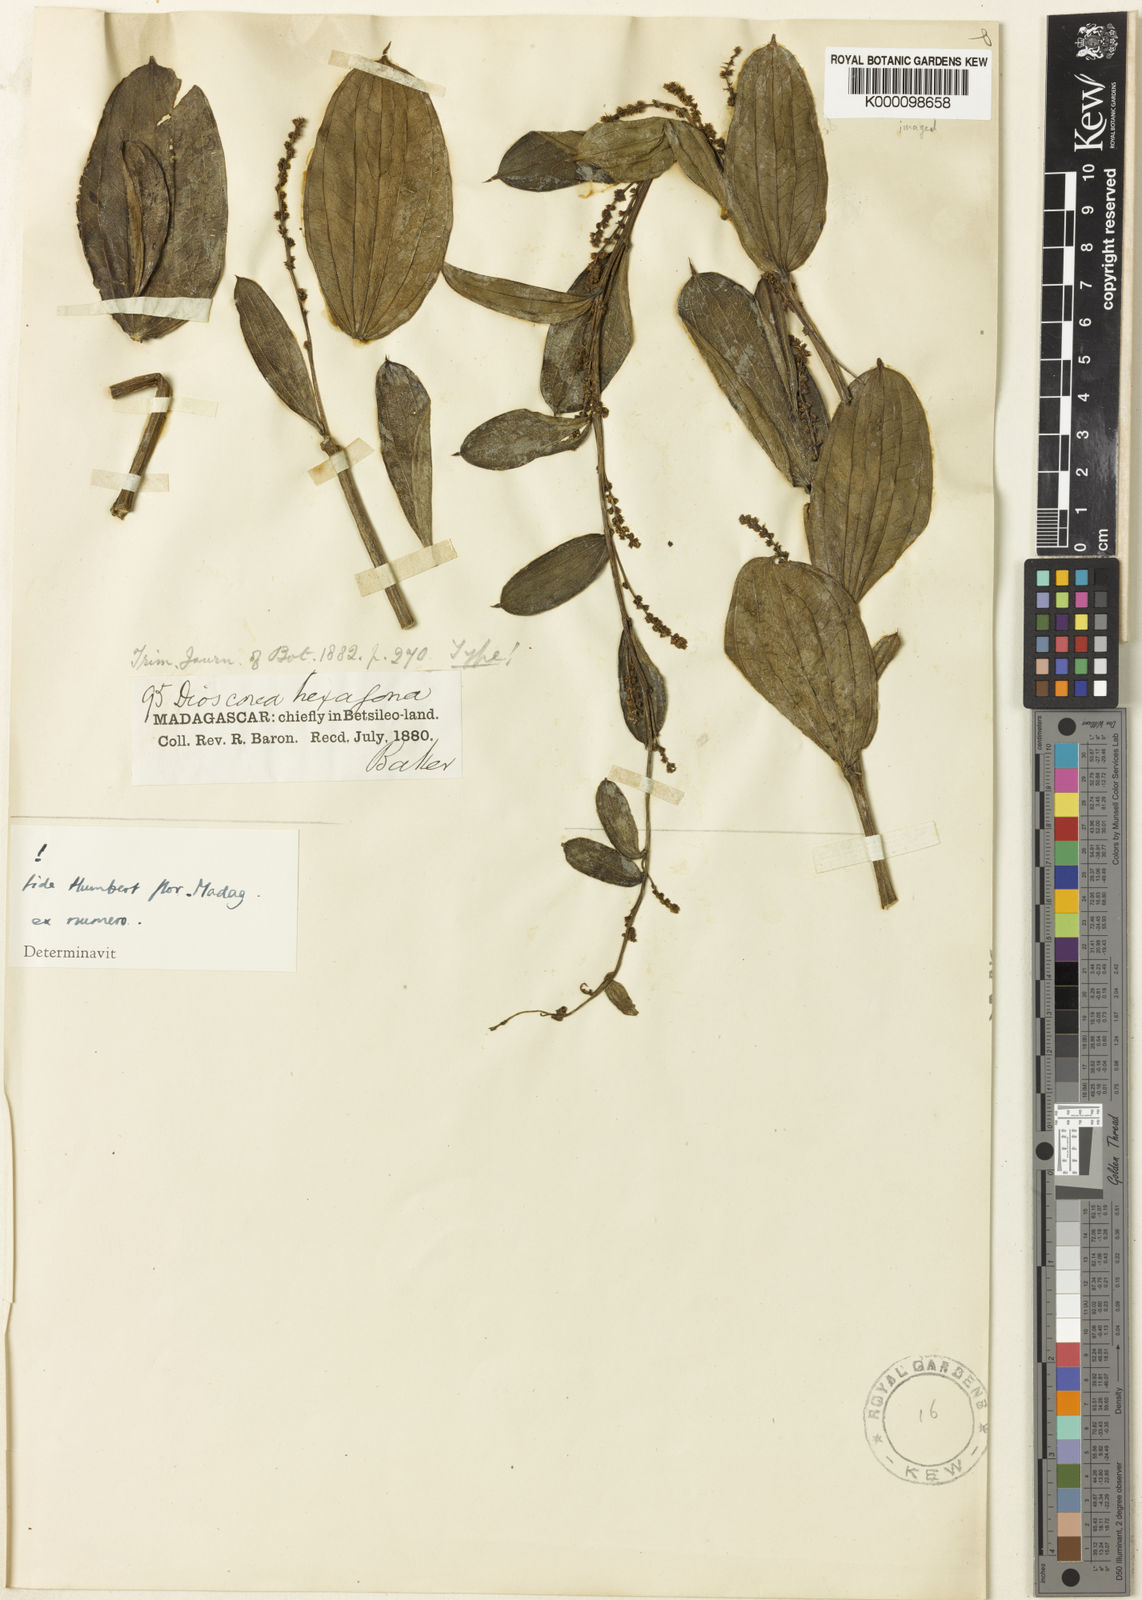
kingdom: Plantae
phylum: Tracheophyta
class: Liliopsida
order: Dioscoreales
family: Dioscoreaceae
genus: Dioscorea
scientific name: Dioscorea hexagona
